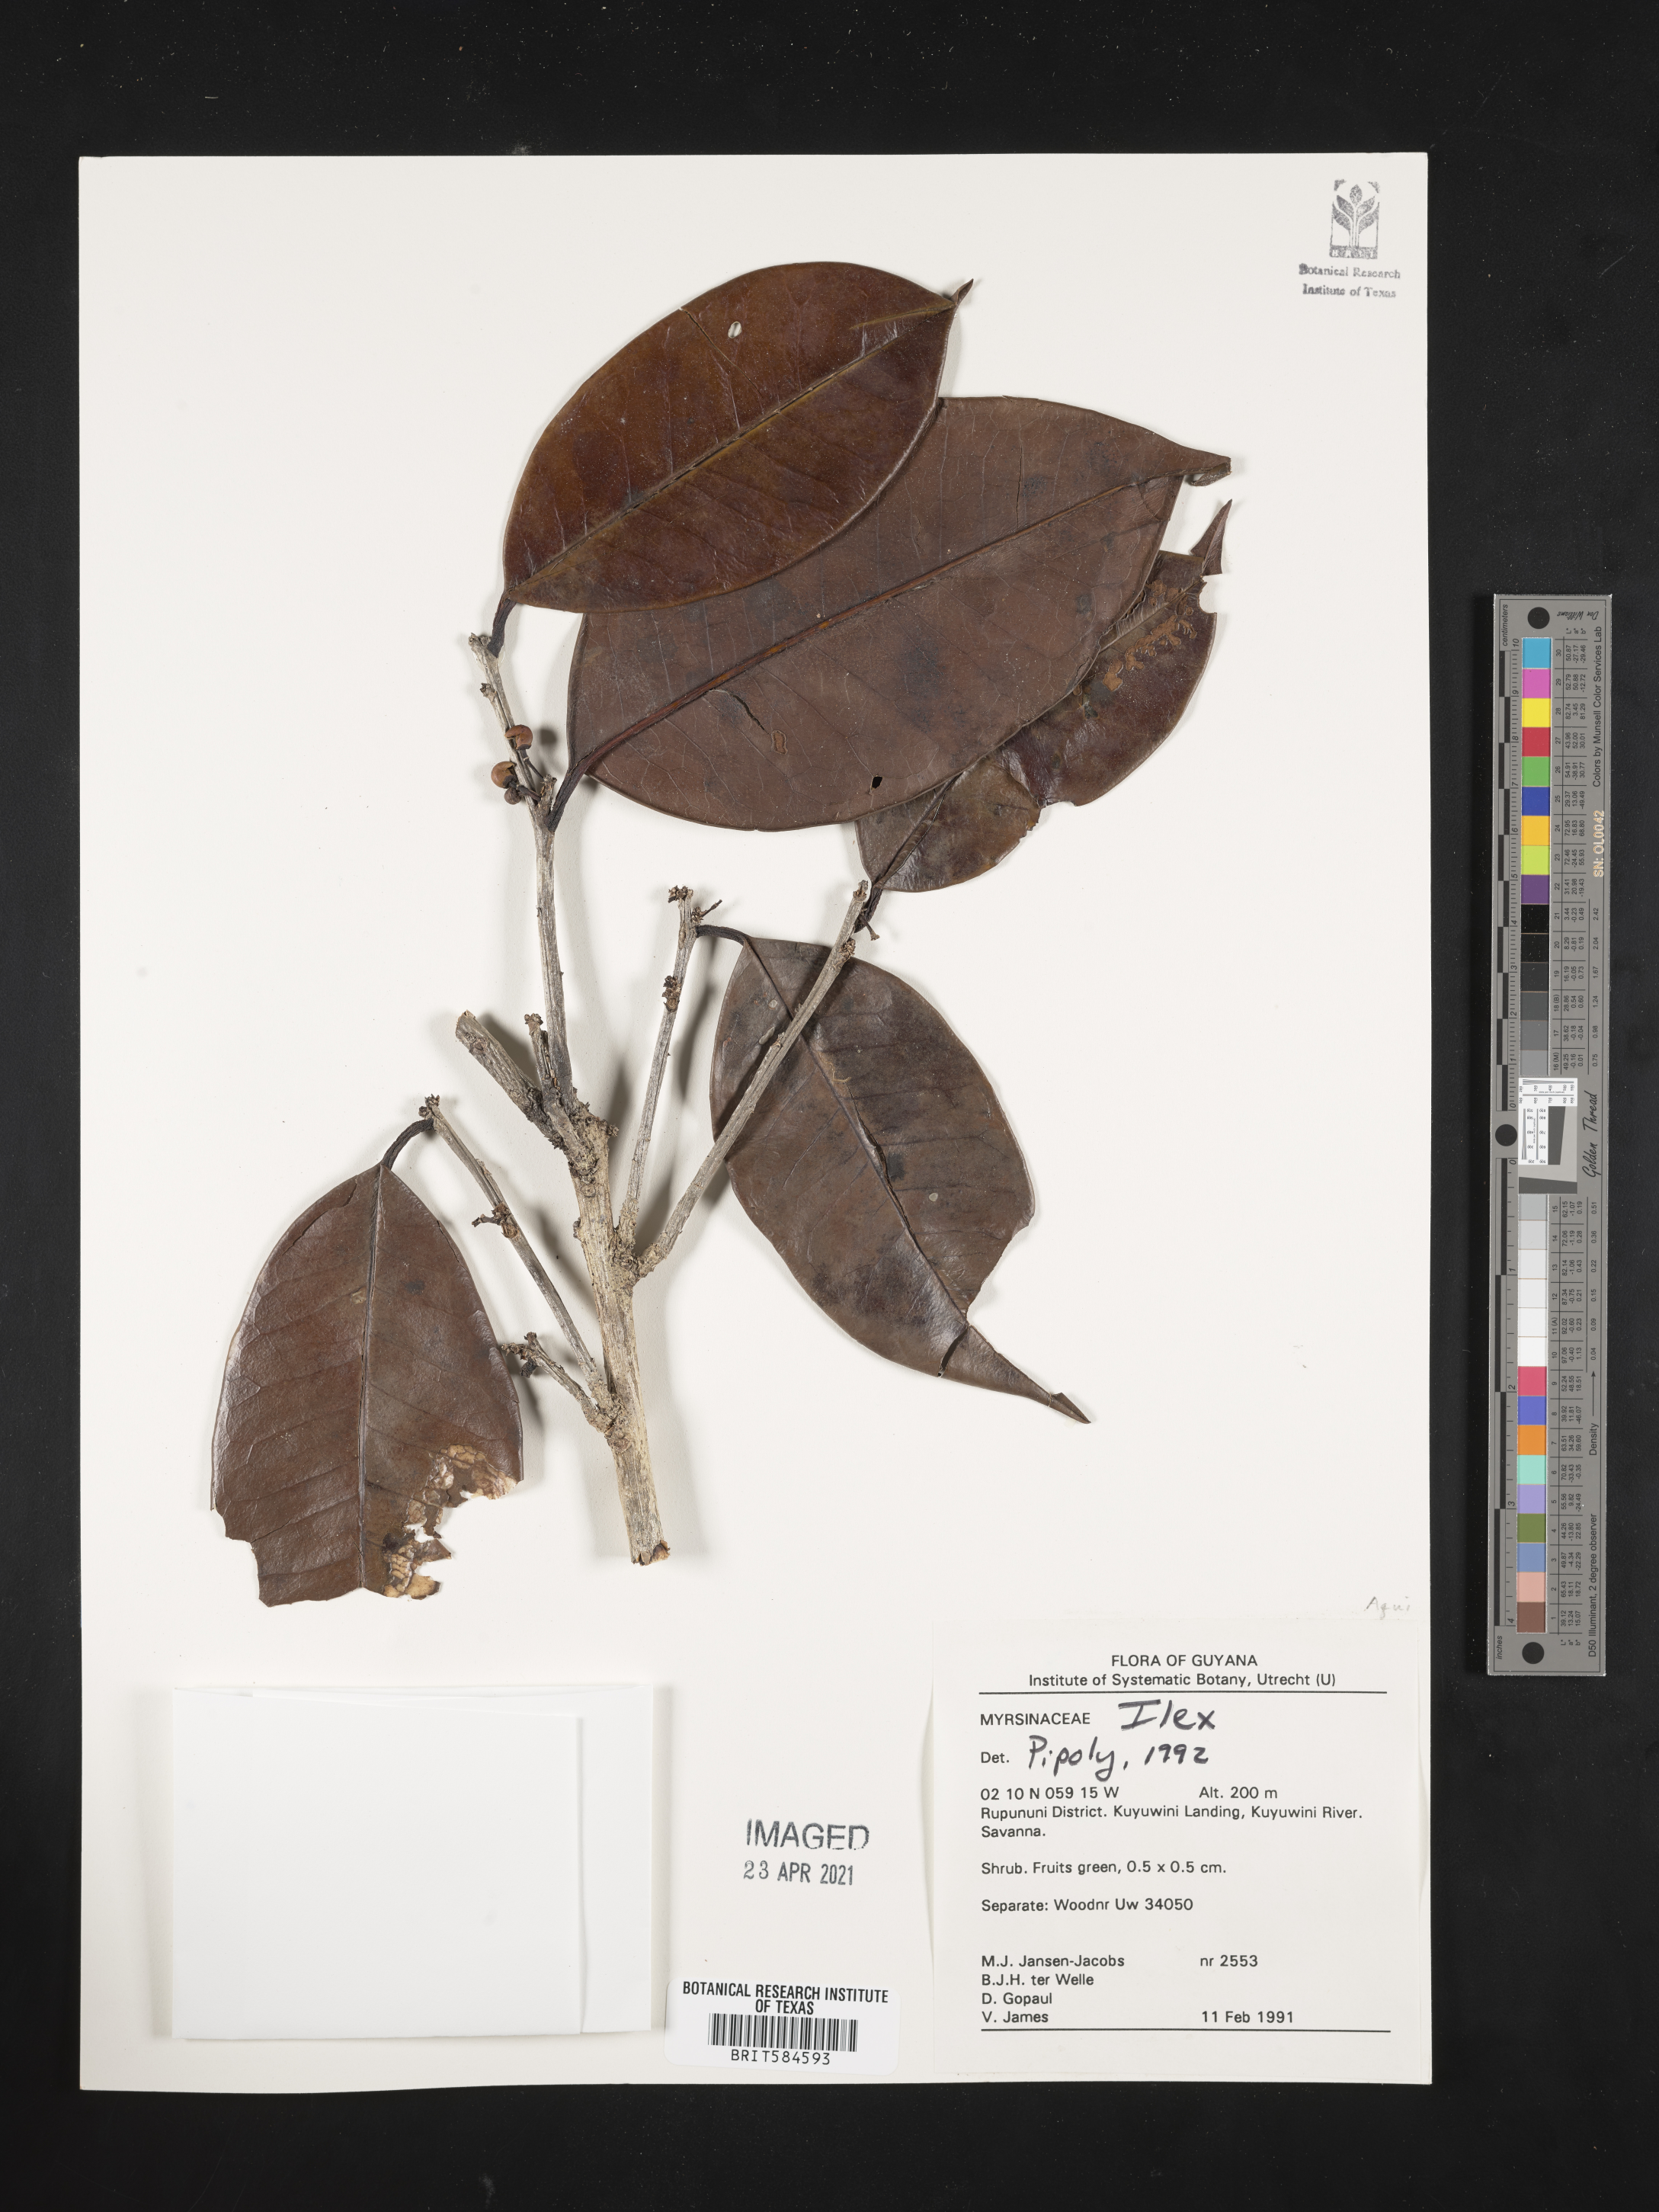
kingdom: Plantae
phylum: Tracheophyta
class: Magnoliopsida
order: Aquifoliales
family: Aquifoliaceae
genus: Ilex
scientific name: Ilex
